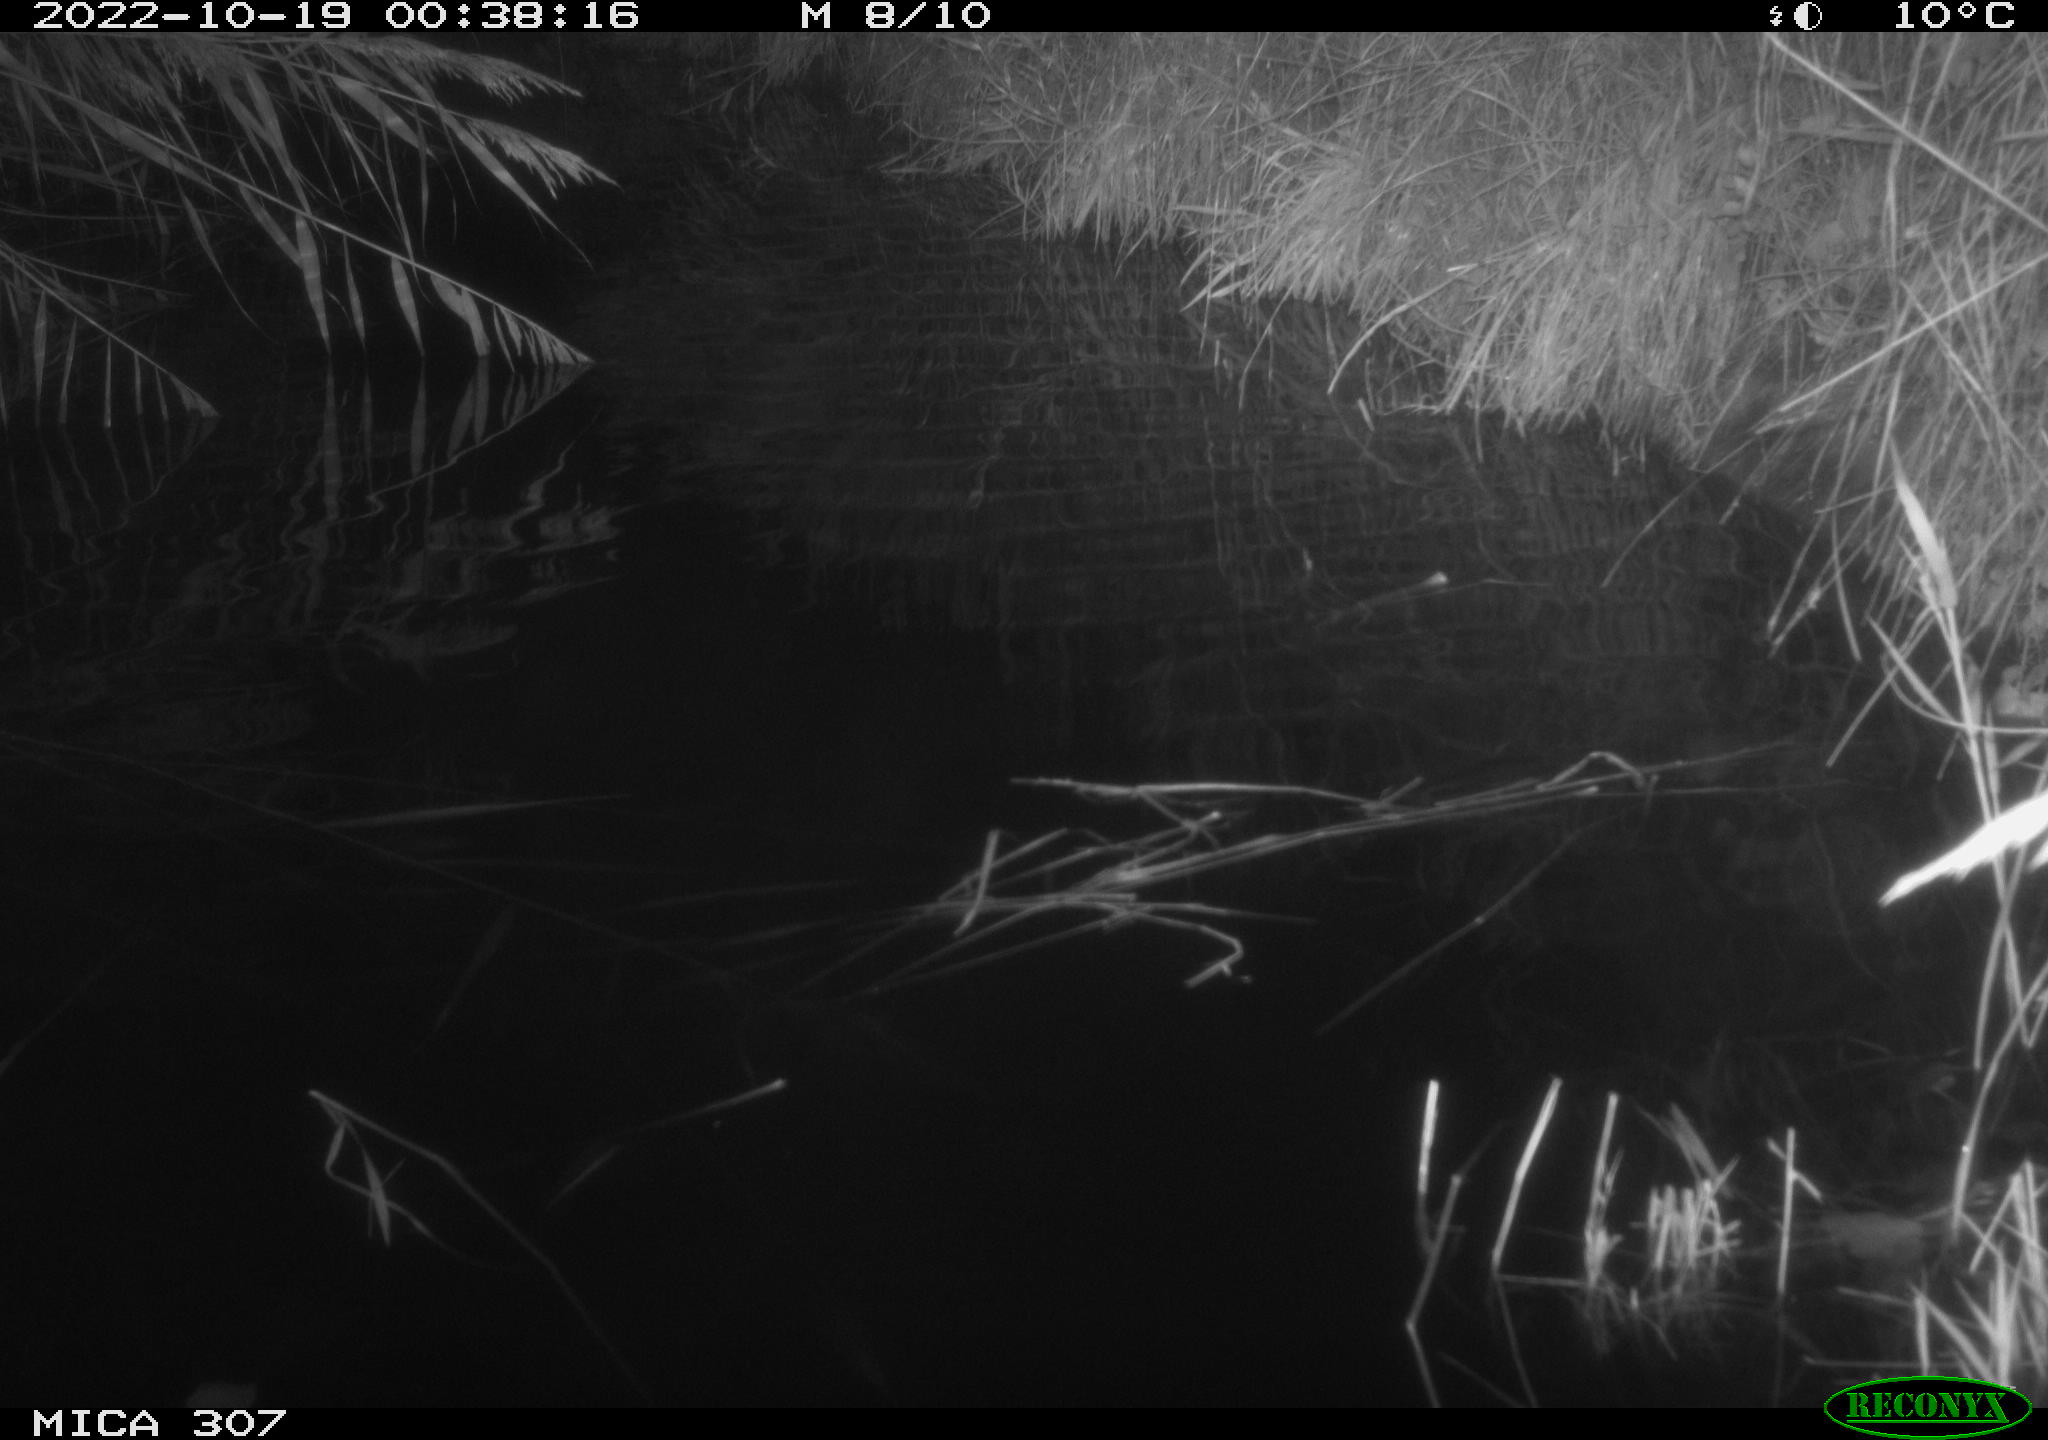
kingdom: Animalia
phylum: Chordata
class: Mammalia
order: Rodentia
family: Cricetidae
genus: Ondatra
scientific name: Ondatra zibethicus
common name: Muskrat
